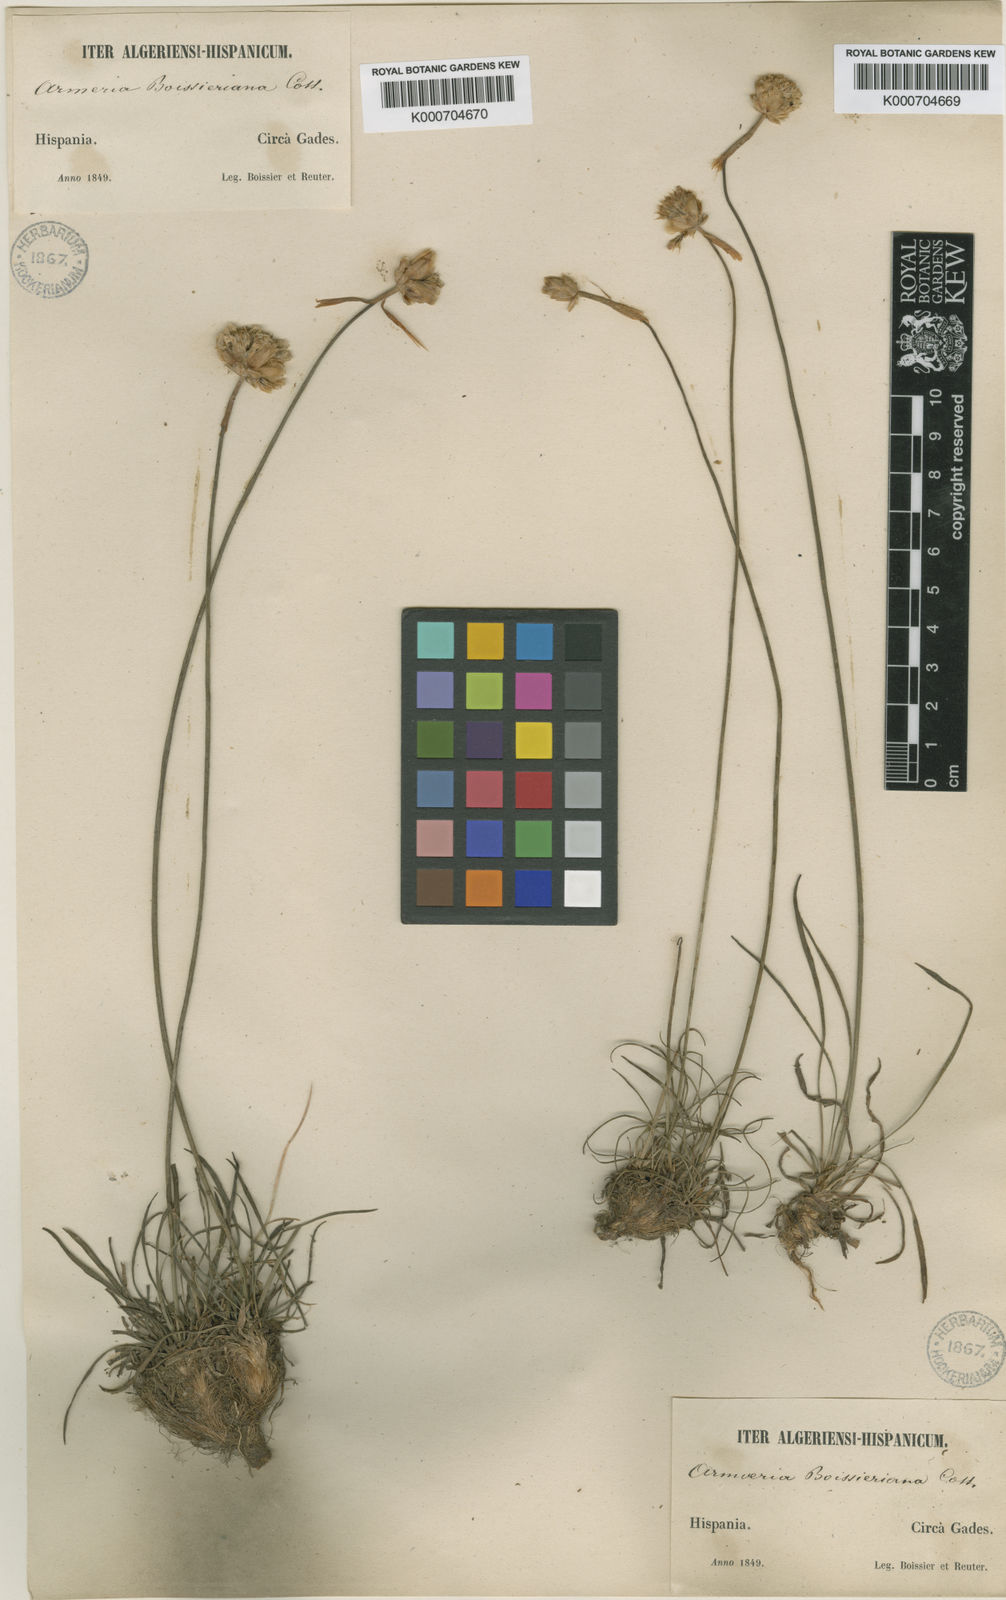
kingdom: Plantae
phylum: Tracheophyta
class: Magnoliopsida
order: Caryophyllales
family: Plumbaginaceae
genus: Armeria
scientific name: Armeria hirta
